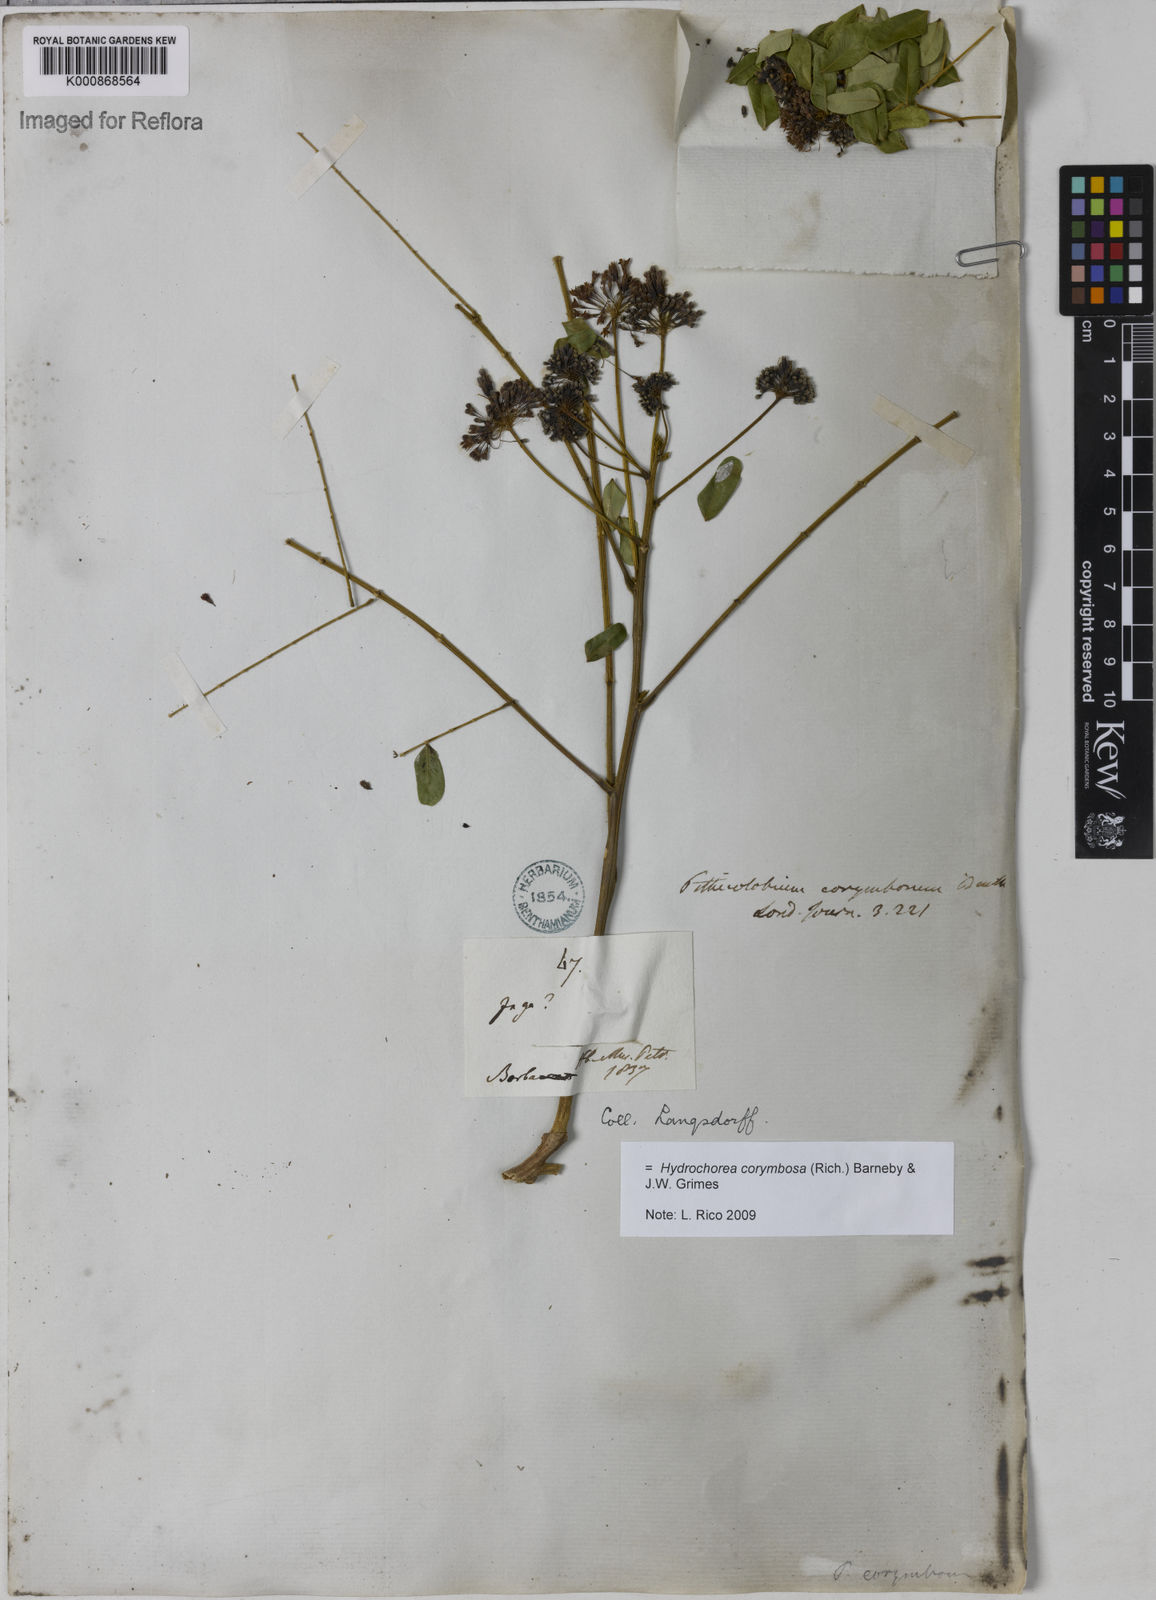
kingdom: Plantae
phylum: Tracheophyta
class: Magnoliopsida
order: Fabales
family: Fabaceae
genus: Hydrochorea
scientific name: Hydrochorea corymbosa
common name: Swamp manariballi
